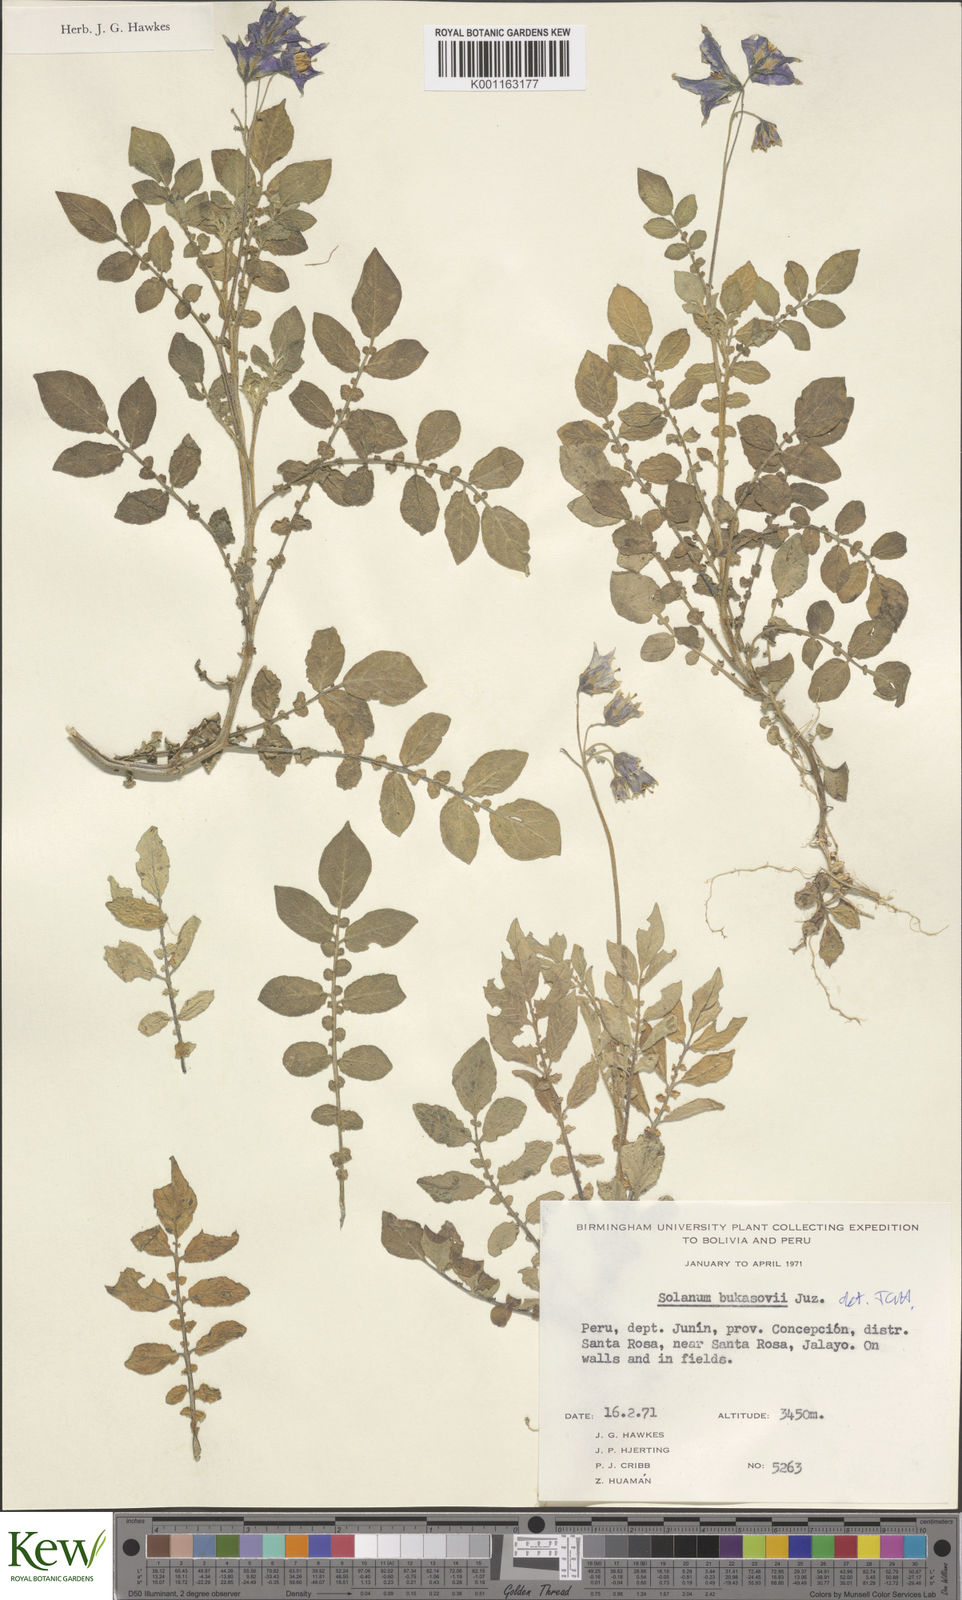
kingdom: Plantae
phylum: Tracheophyta
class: Magnoliopsida
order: Solanales
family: Solanaceae
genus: Solanum
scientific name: Solanum candolleanum
